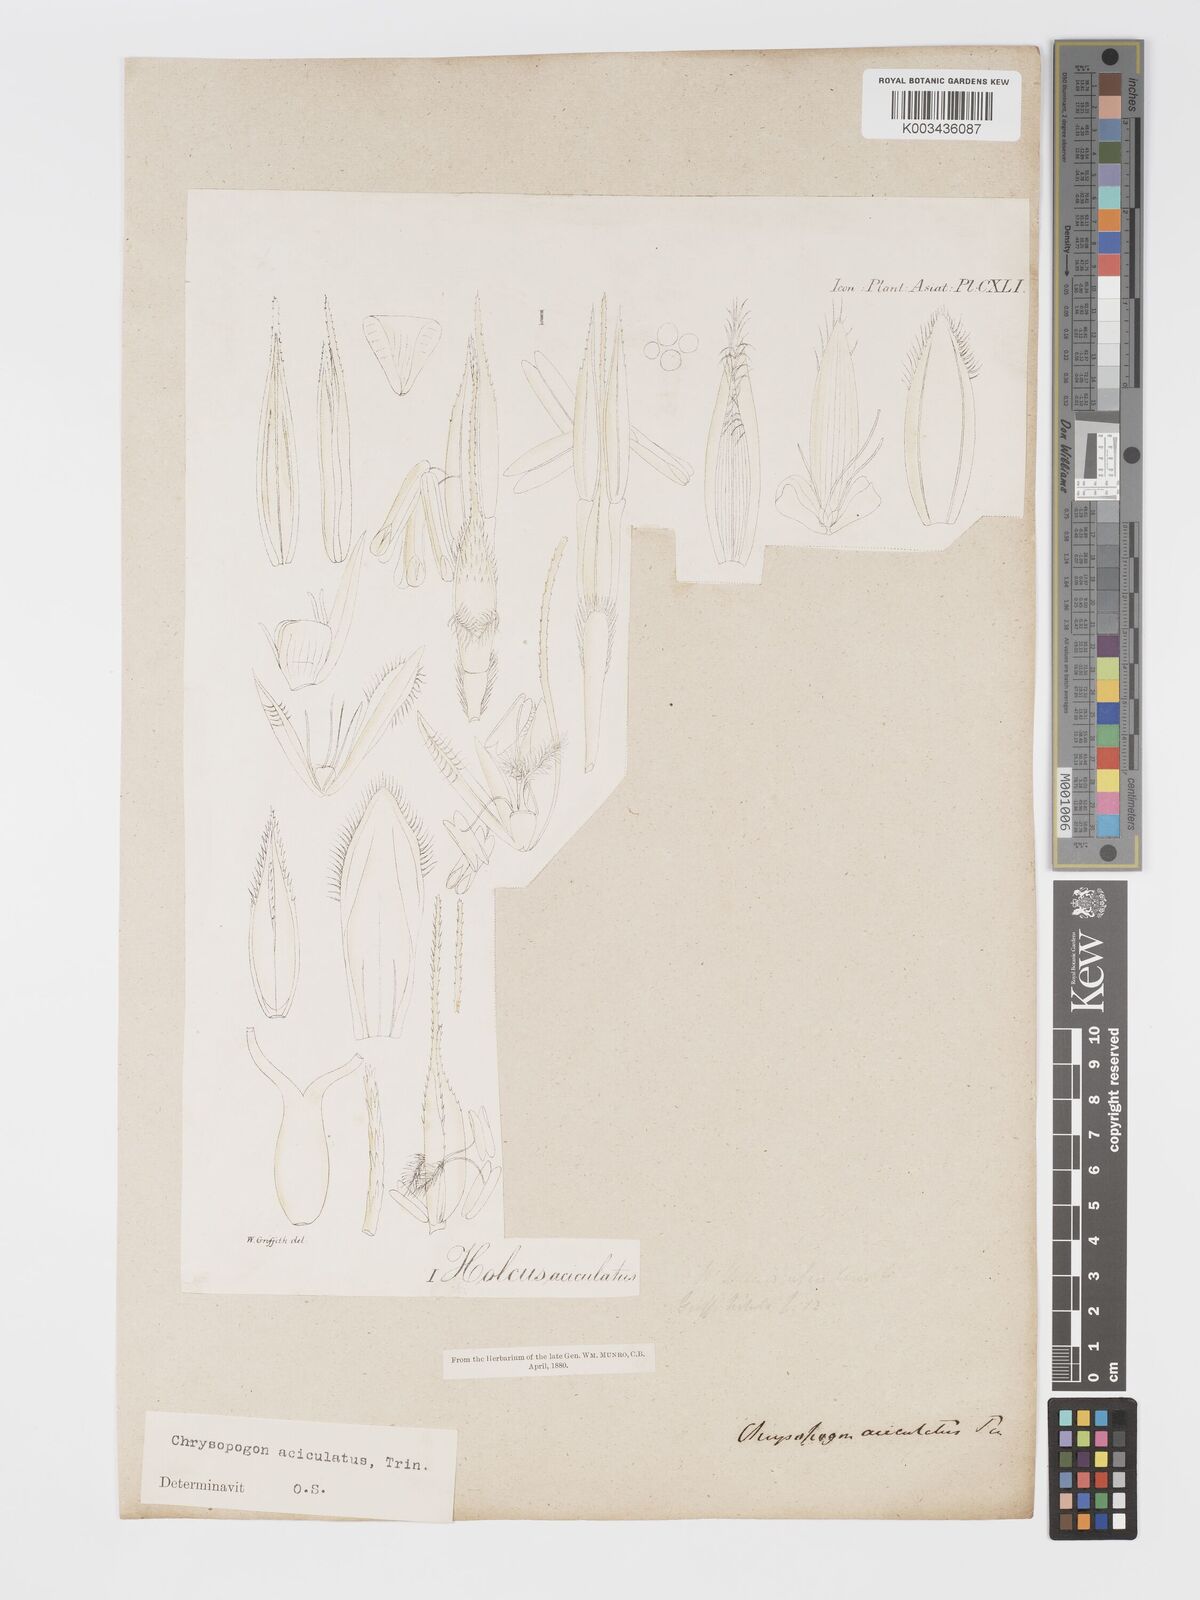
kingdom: Plantae
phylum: Tracheophyta
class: Liliopsida
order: Poales
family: Poaceae
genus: Chrysopogon
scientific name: Chrysopogon aciculatus
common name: Pilipiliula
